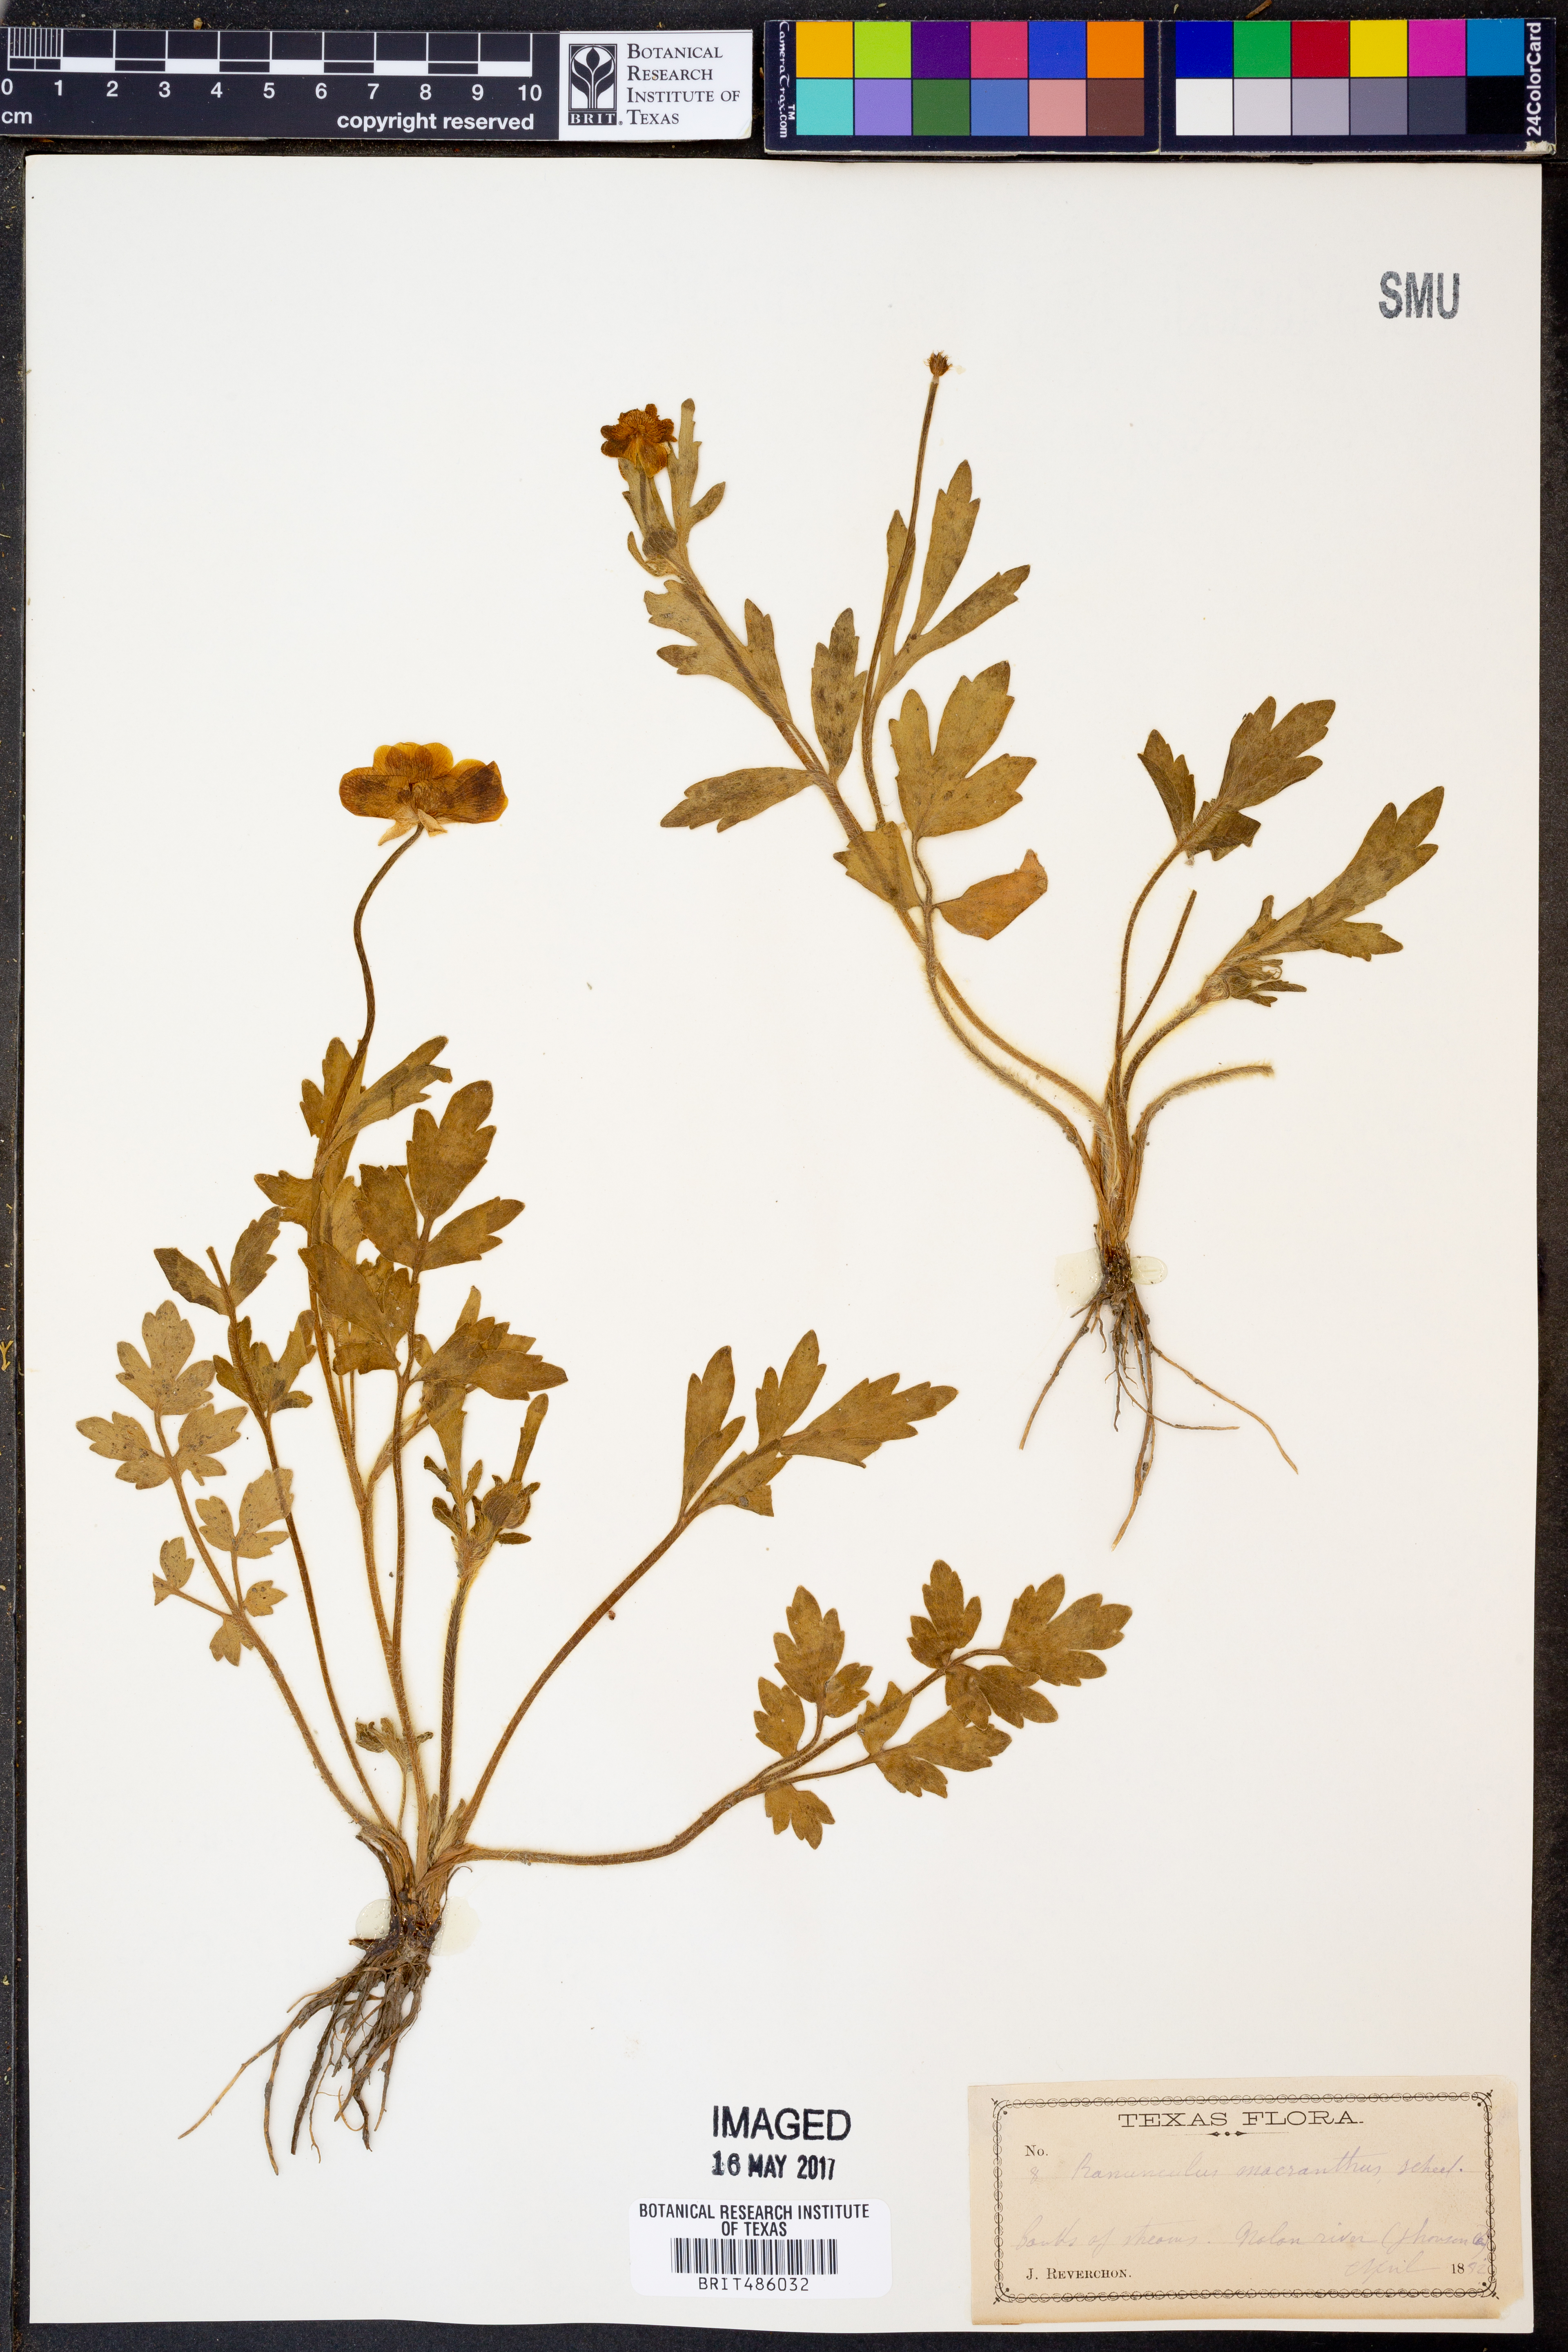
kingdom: Plantae
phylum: Tracheophyta
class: Magnoliopsida
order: Ranunculales
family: Ranunculaceae
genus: Ranunculus
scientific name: Ranunculus macranthus
